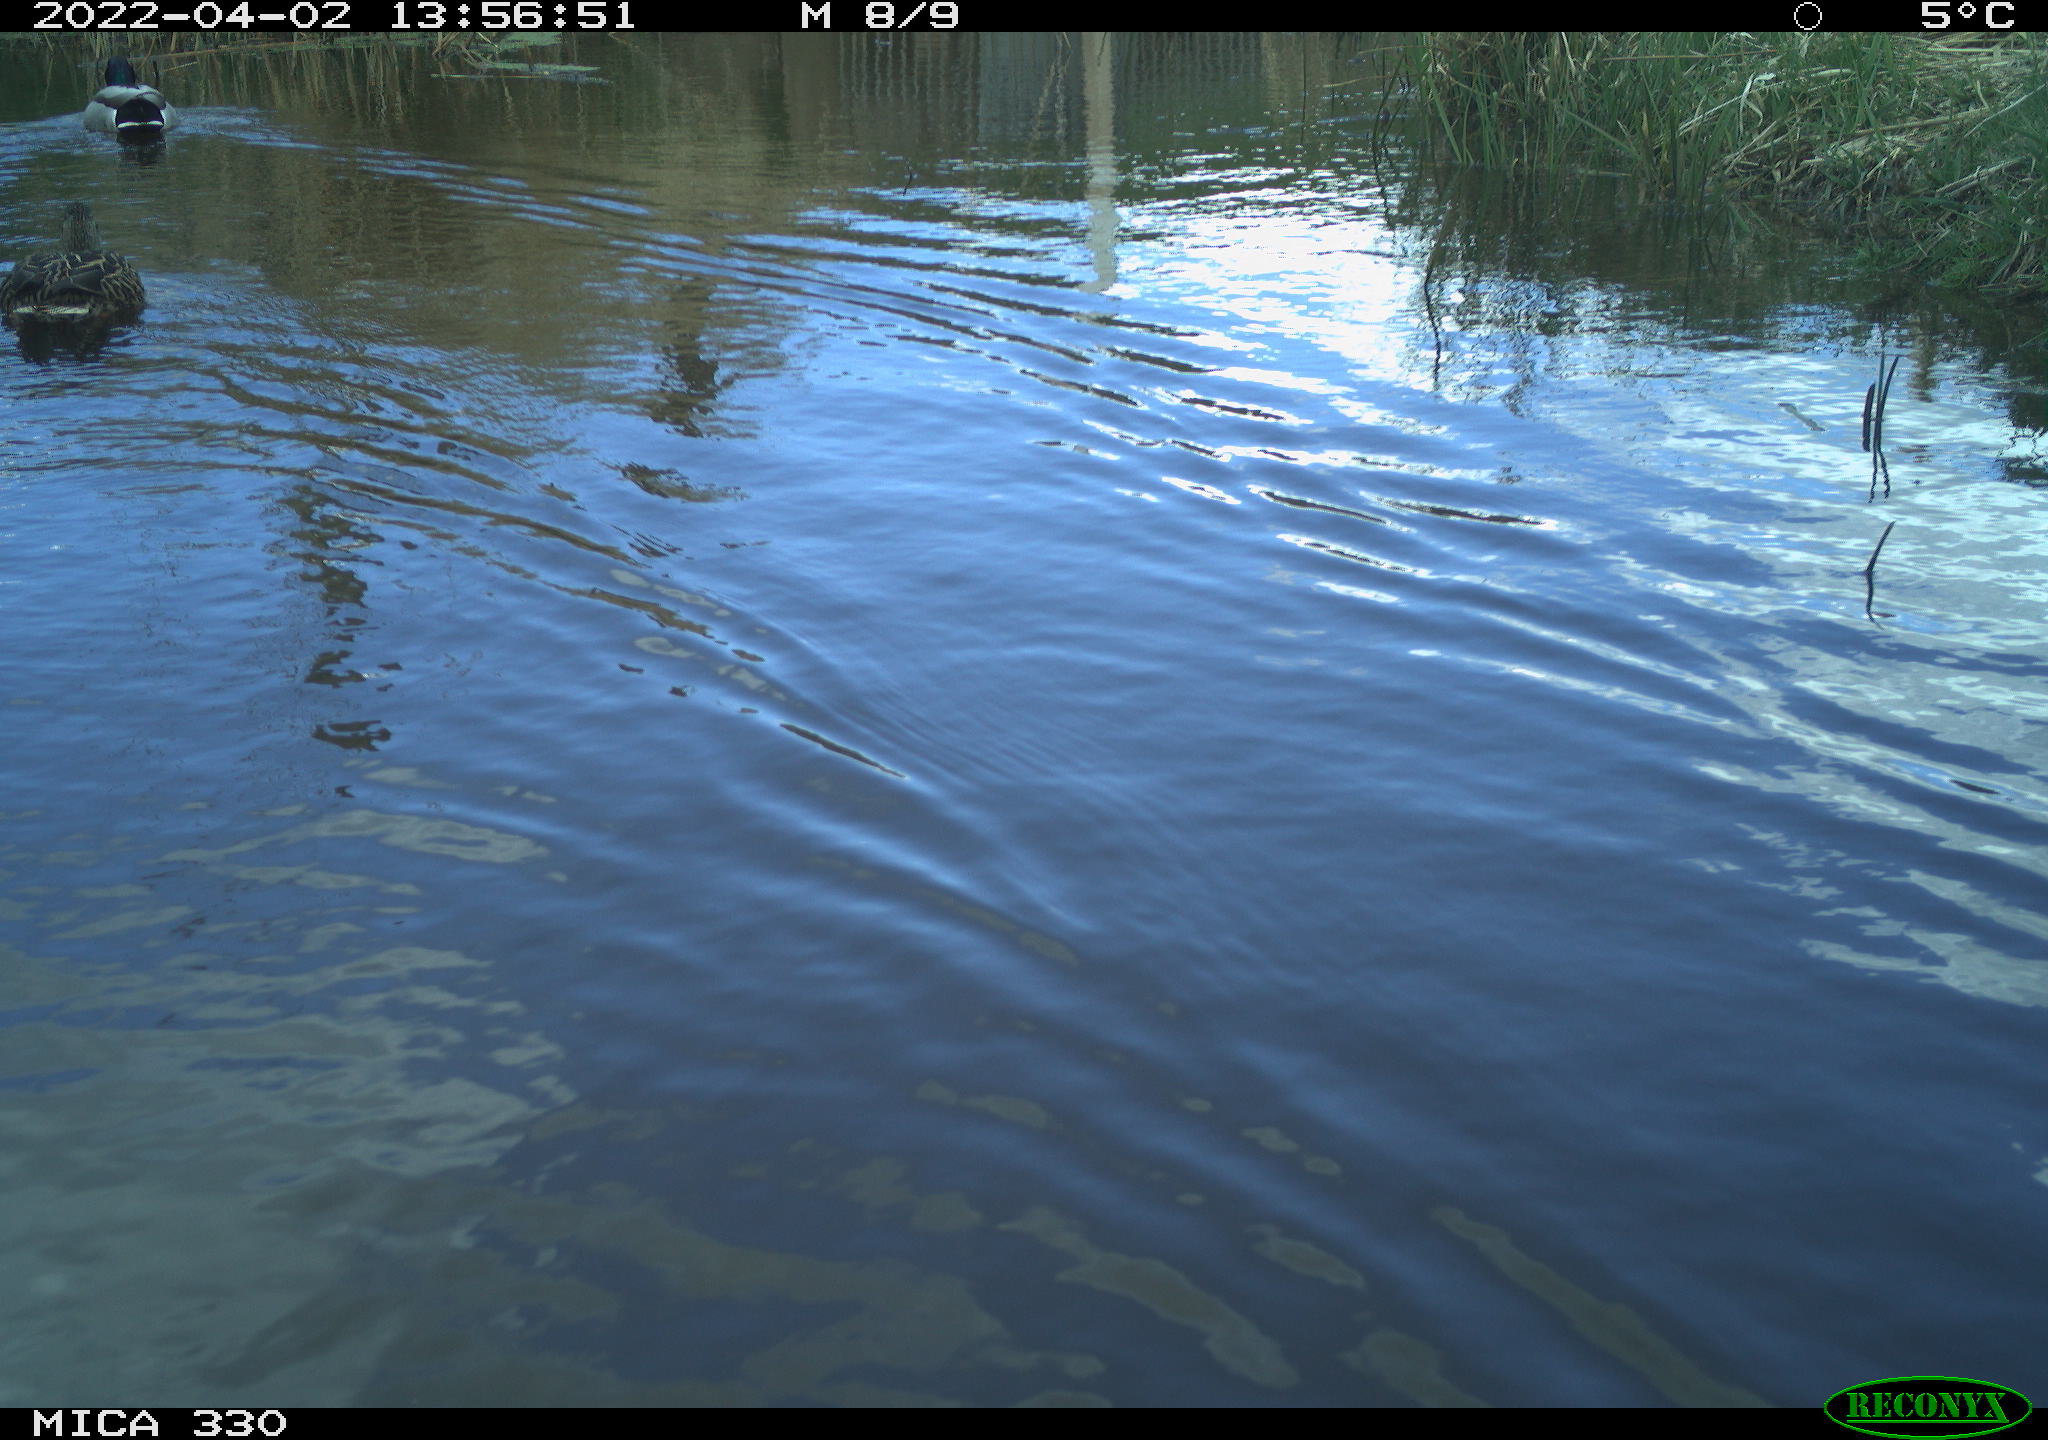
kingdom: Animalia
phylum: Chordata
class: Aves
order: Anseriformes
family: Anatidae
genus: Anas
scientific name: Anas platyrhynchos
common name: Mallard
